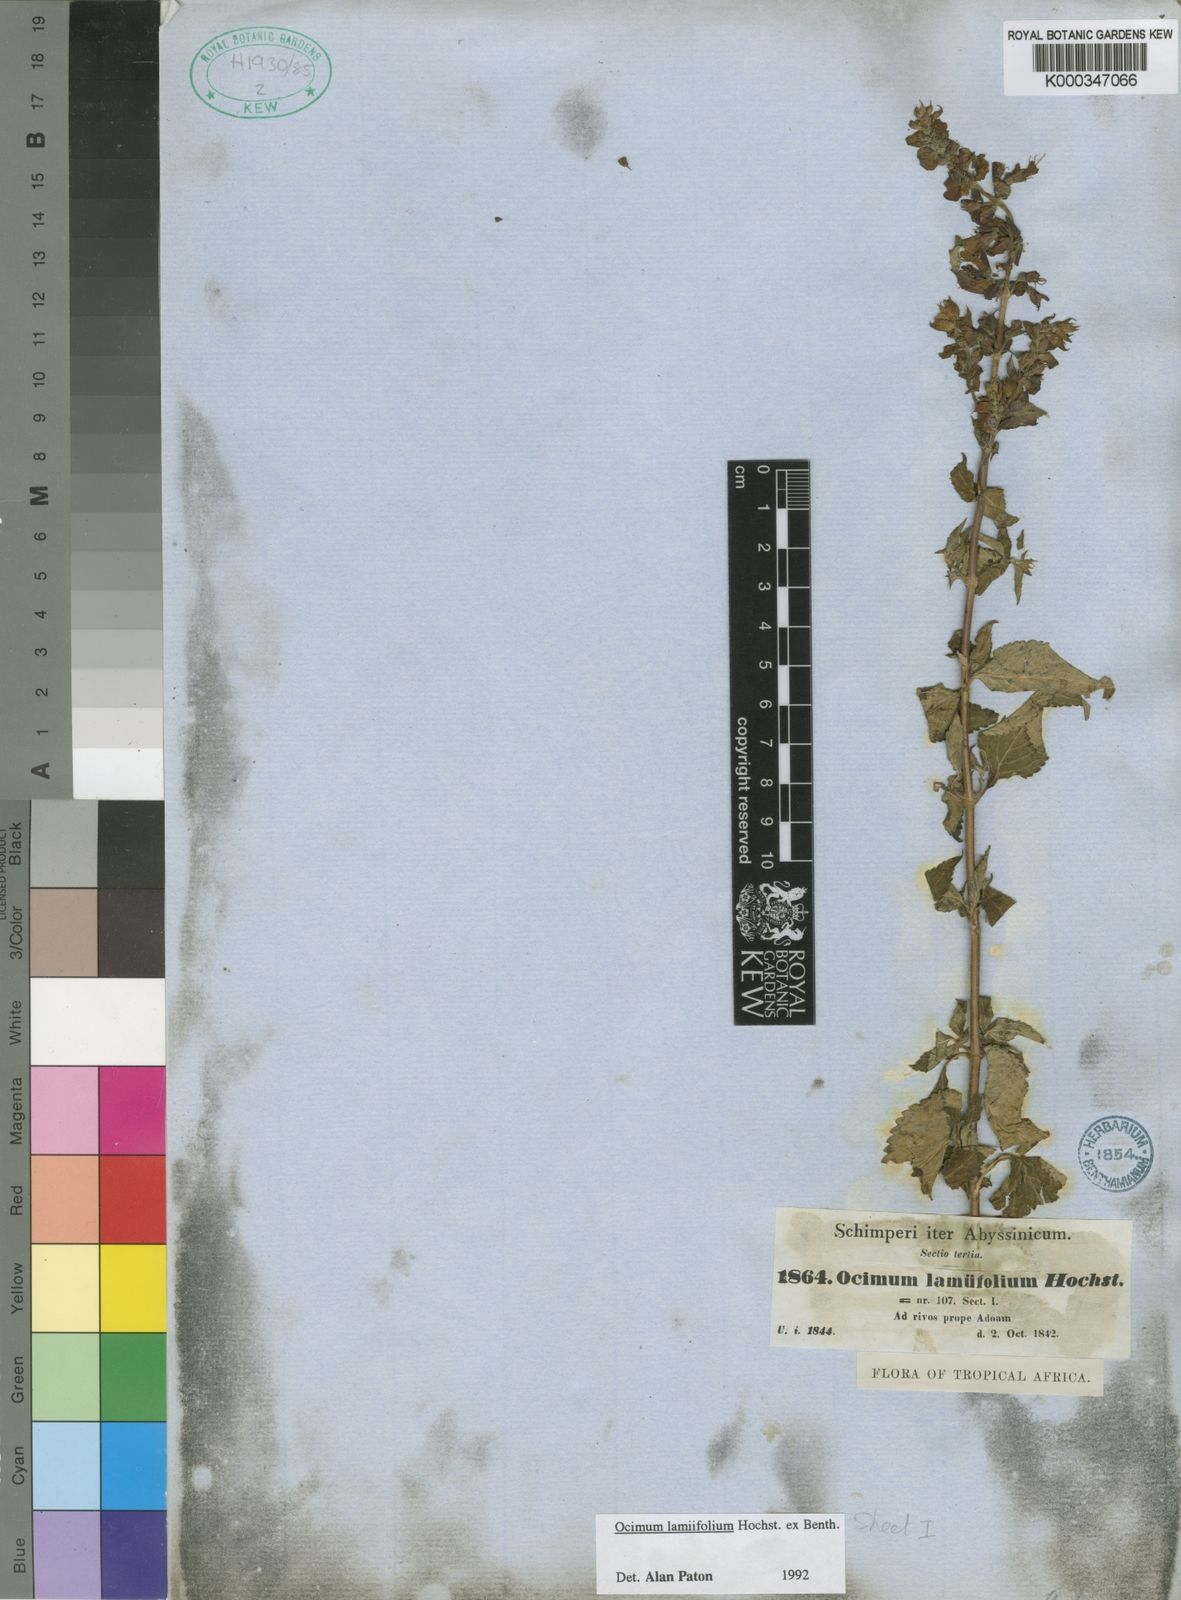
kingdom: Plantae
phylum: Tracheophyta
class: Magnoliopsida
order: Lamiales
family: Lamiaceae
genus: Ocimum
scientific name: Ocimum lamiifolium
